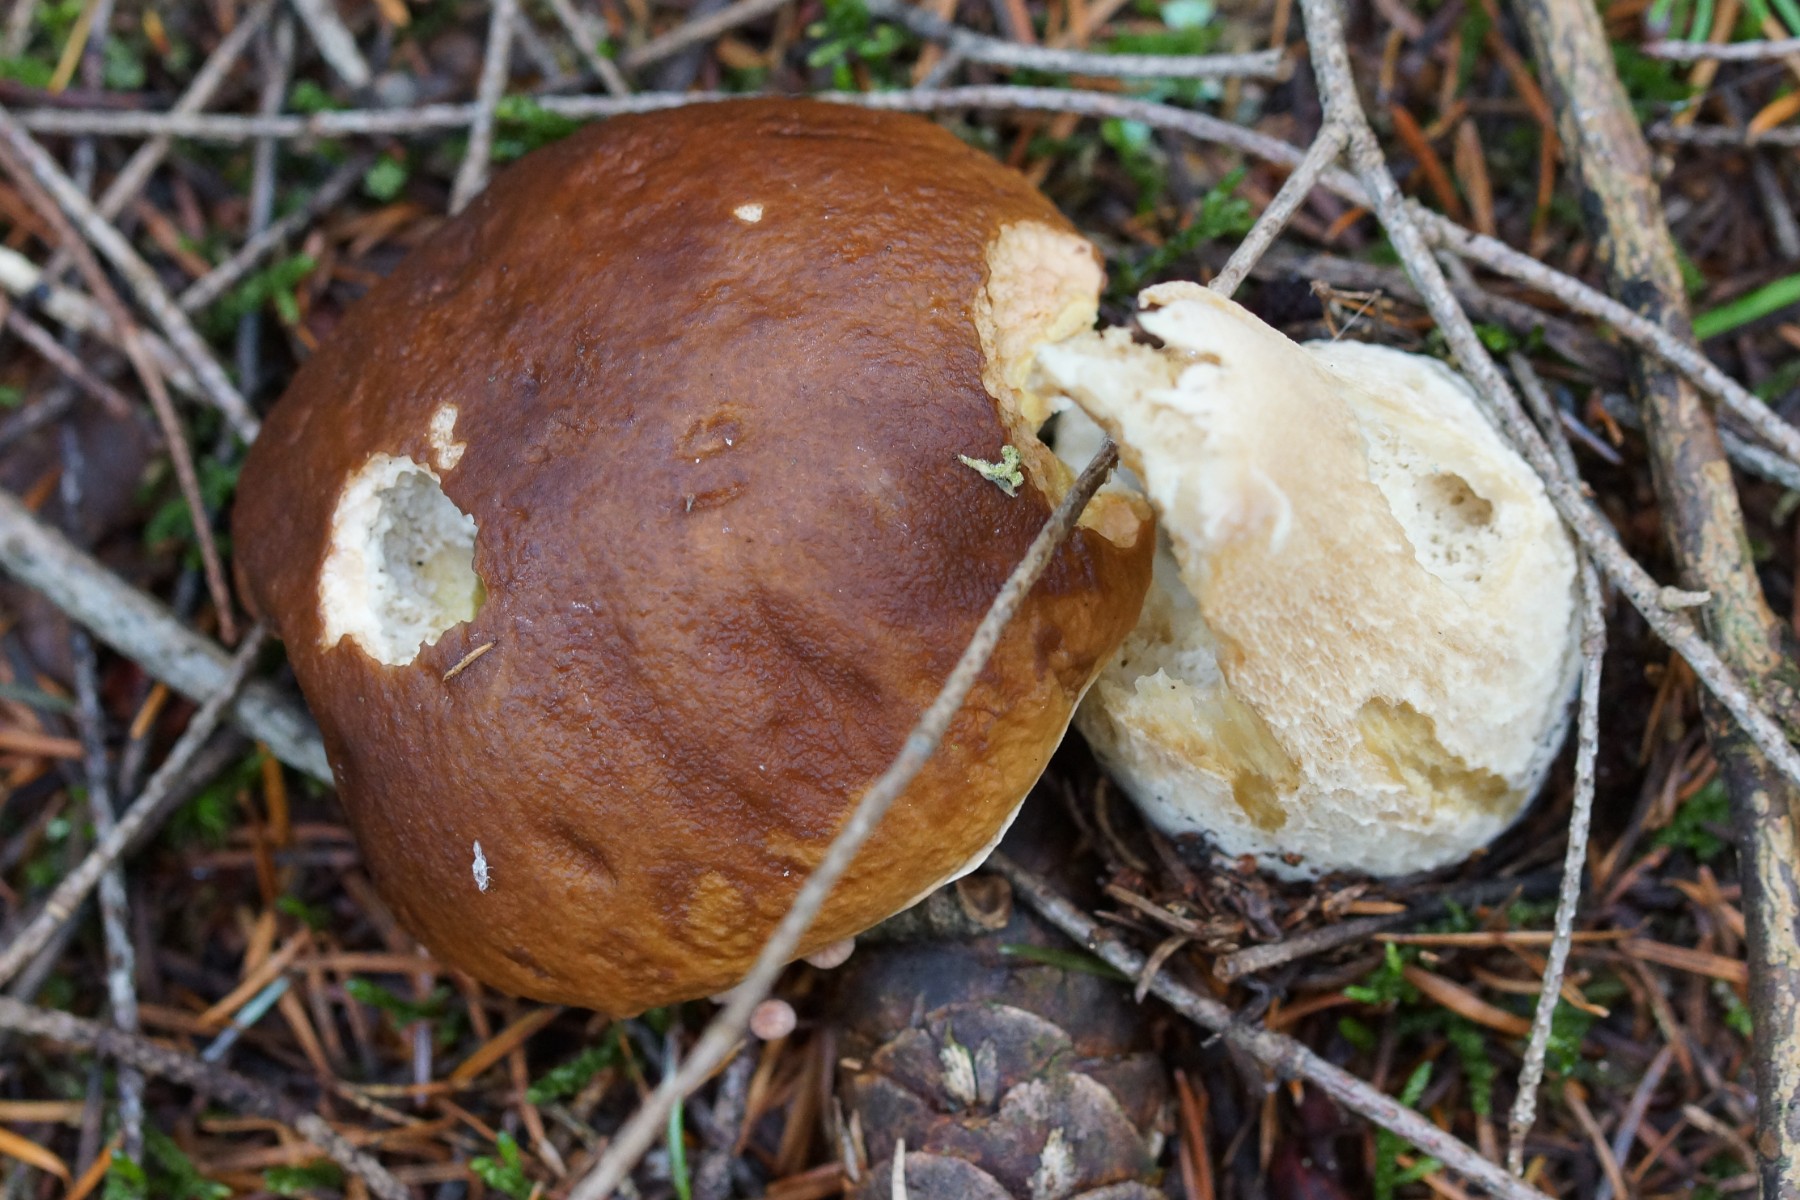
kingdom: Fungi
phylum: Basidiomycota
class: Agaricomycetes
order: Boletales
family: Boletaceae
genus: Boletus
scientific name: Boletus edulis
